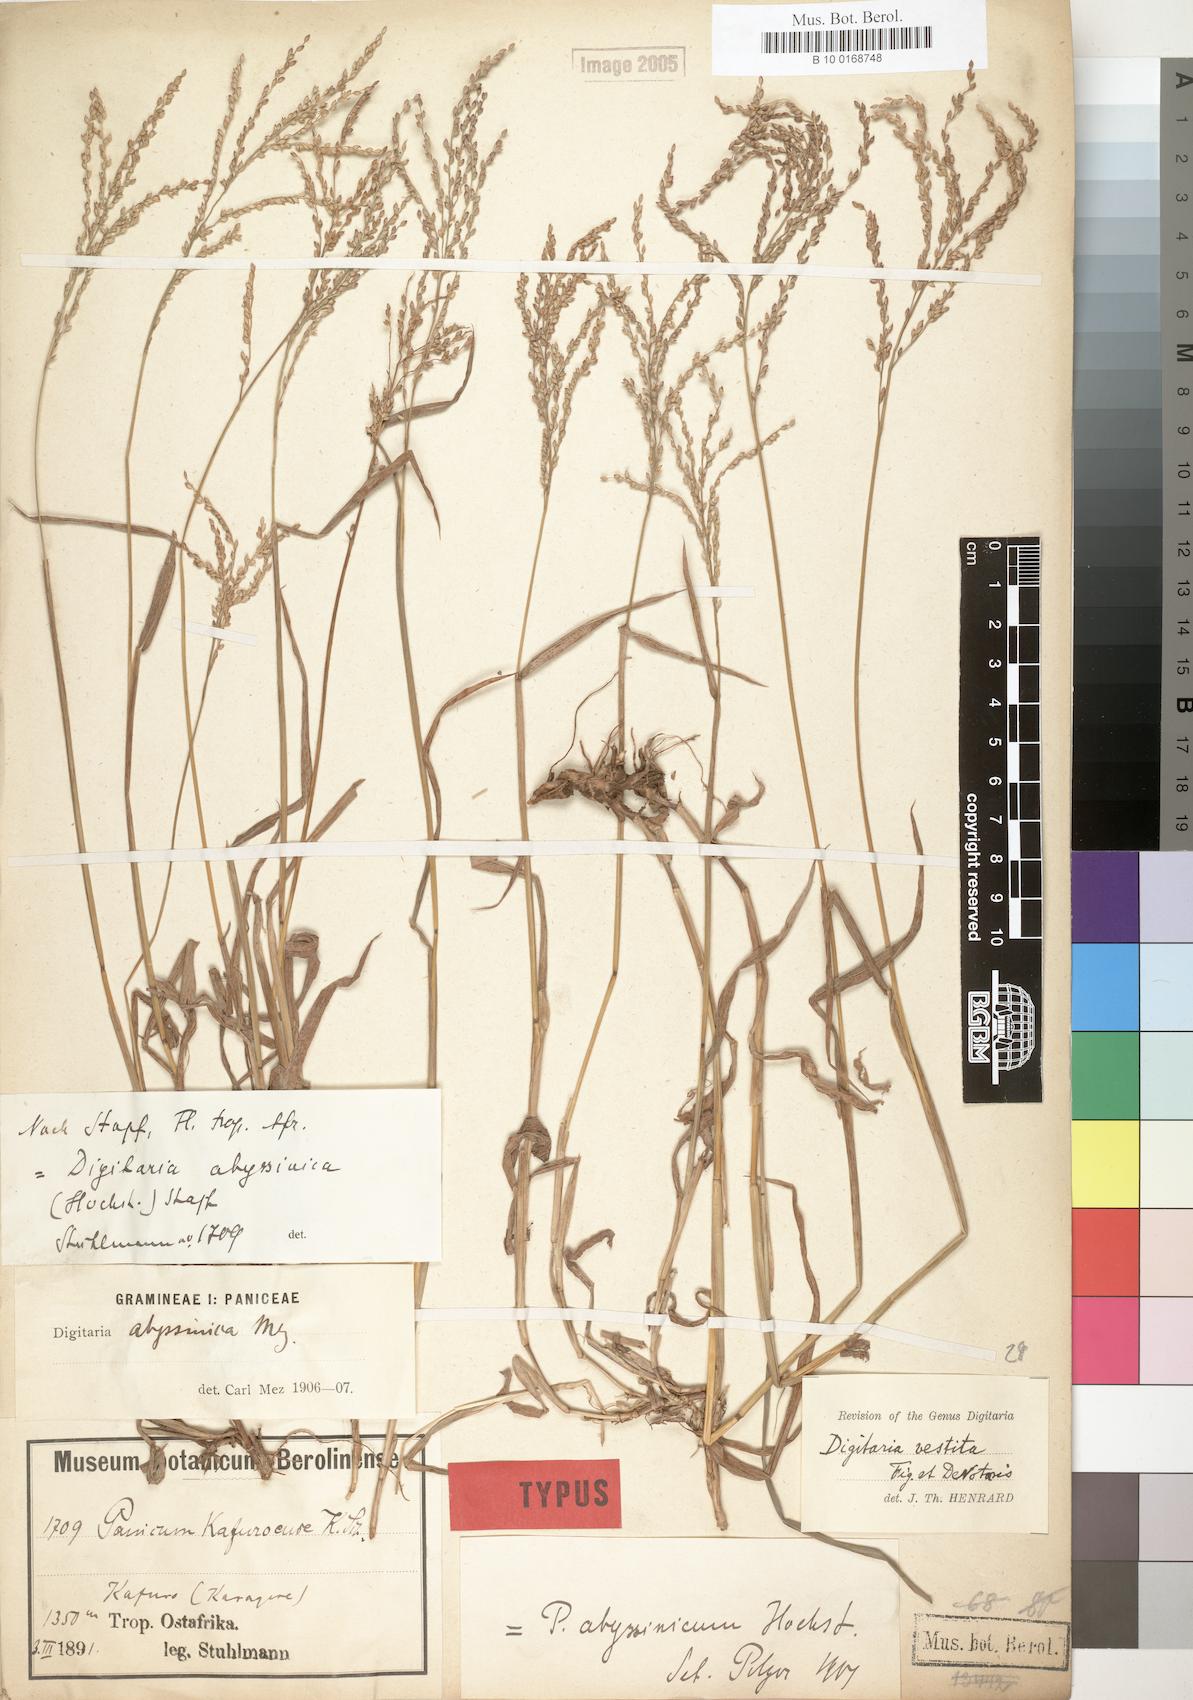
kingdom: Plantae
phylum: Tracheophyta
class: Liliopsida
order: Poales
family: Poaceae
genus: Digitaria
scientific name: Digitaria abyssinica
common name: African couchgrass
